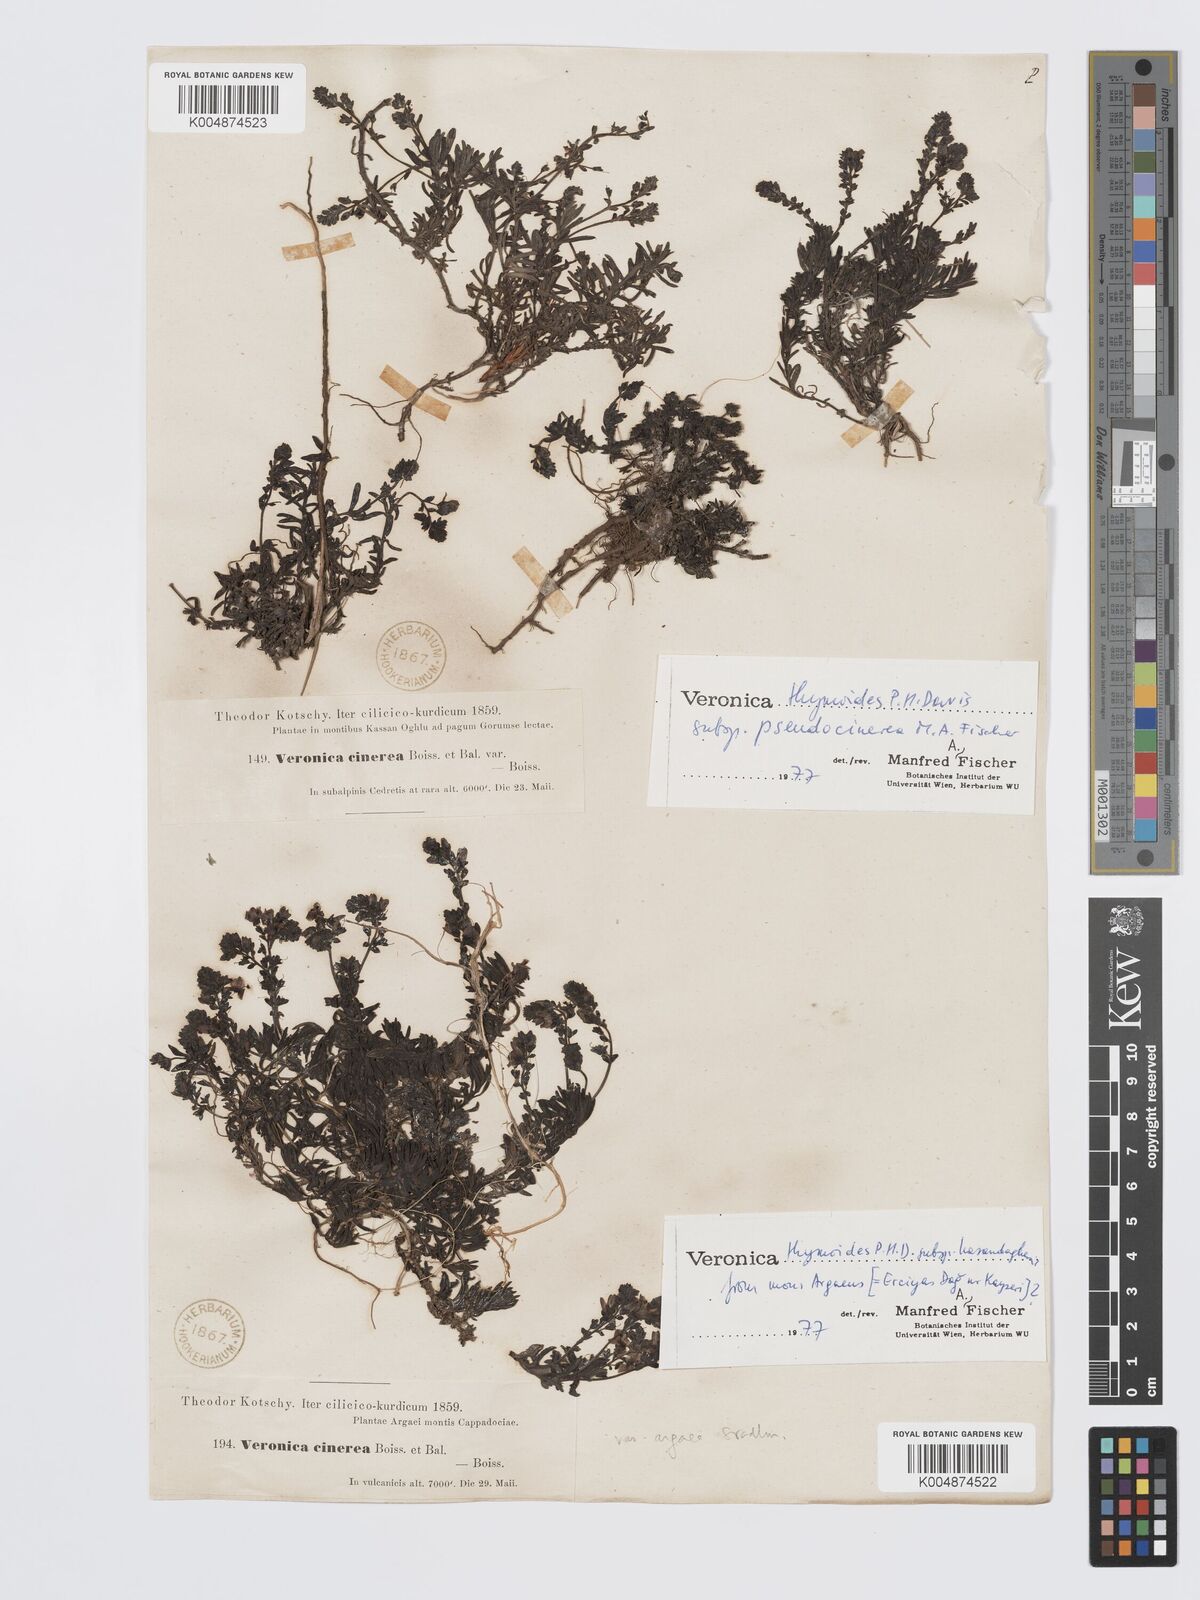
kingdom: Plantae
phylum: Tracheophyta
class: Magnoliopsida
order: Lamiales
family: Plantaginaceae
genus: Veronica
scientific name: Veronica thymoides
